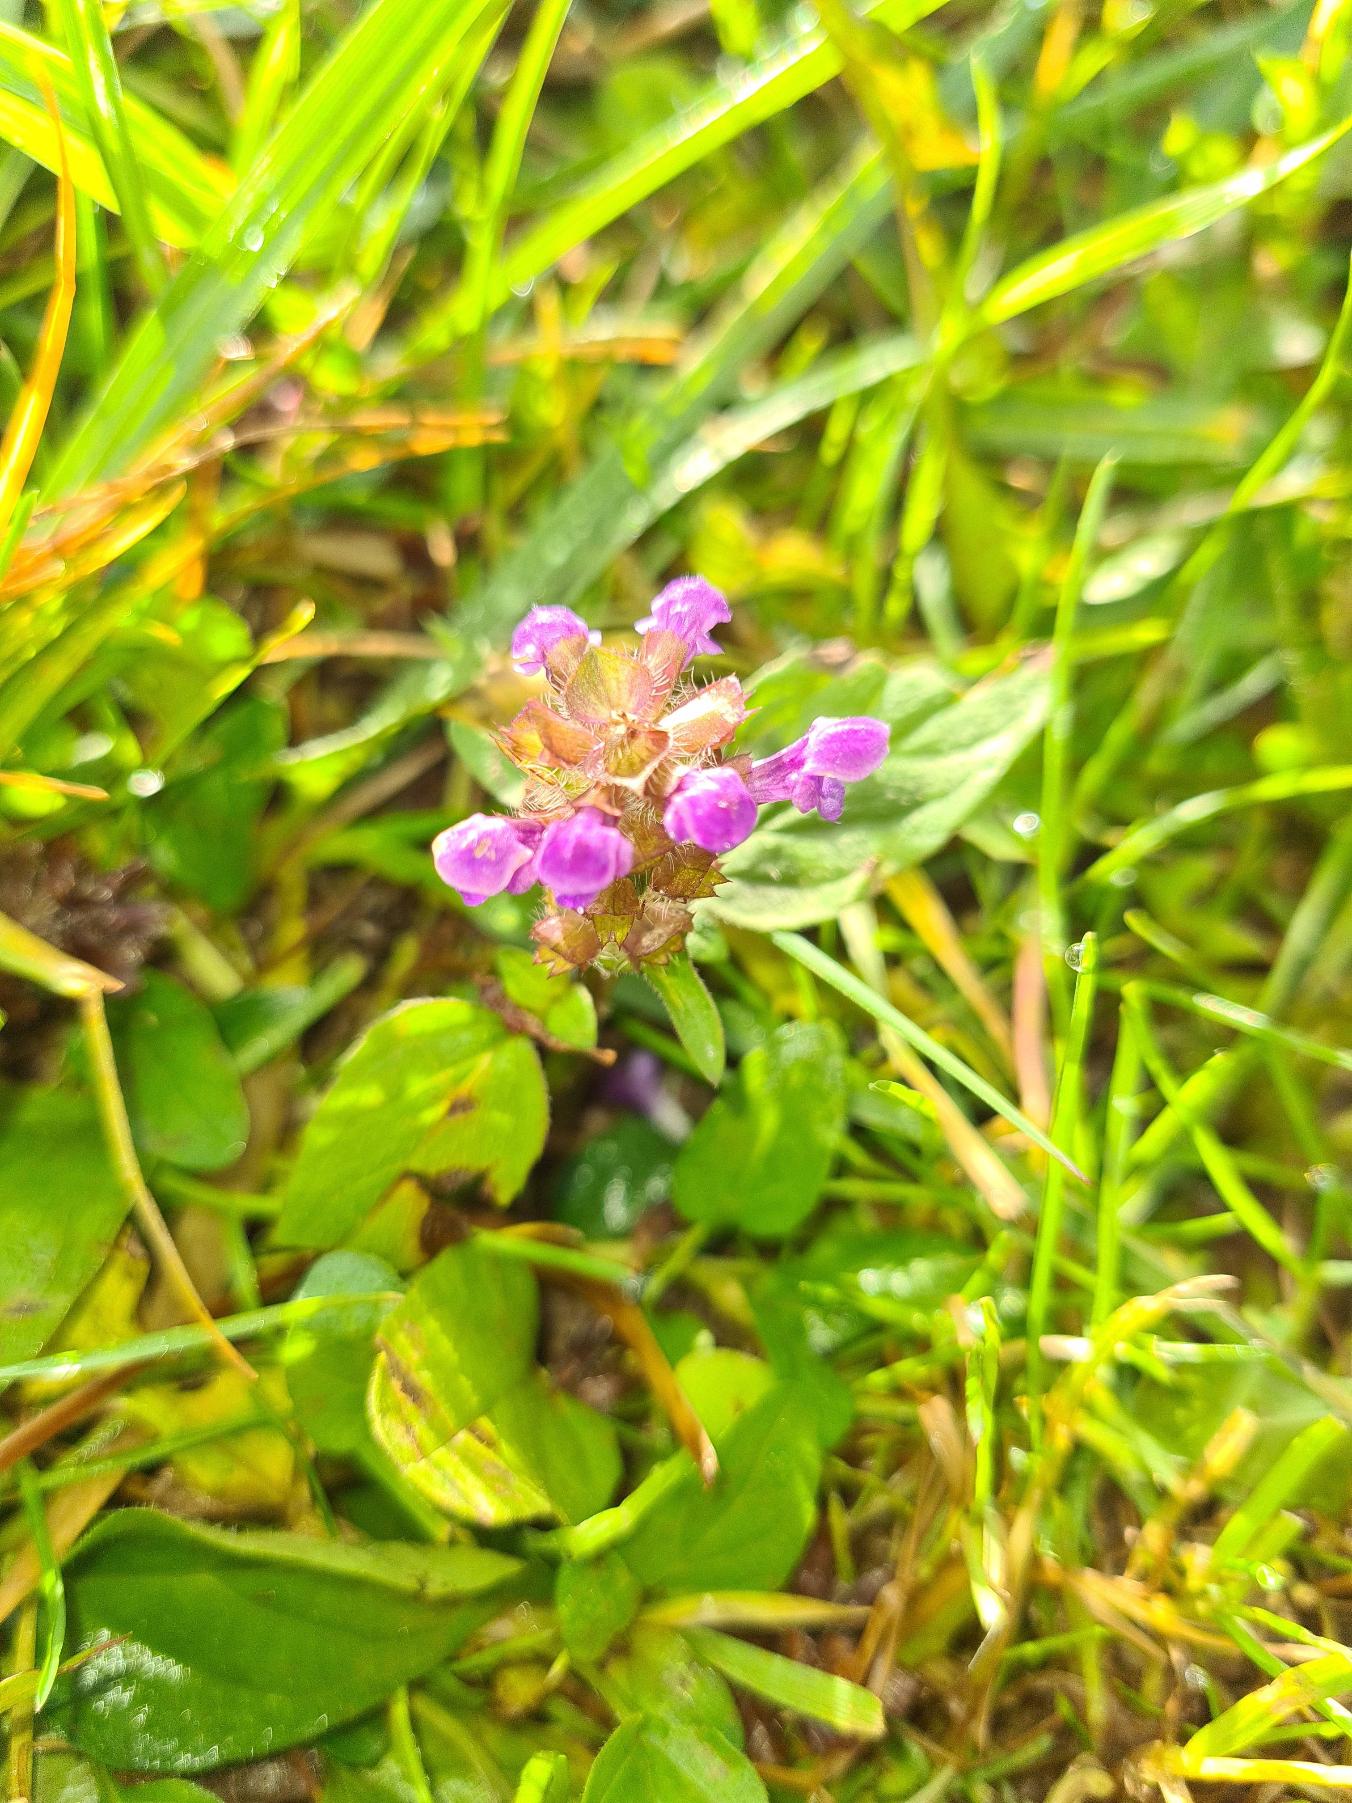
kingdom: Plantae
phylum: Tracheophyta
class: Magnoliopsida
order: Lamiales
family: Lamiaceae
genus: Prunella
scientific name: Prunella vulgaris
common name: Almindelig brunelle
